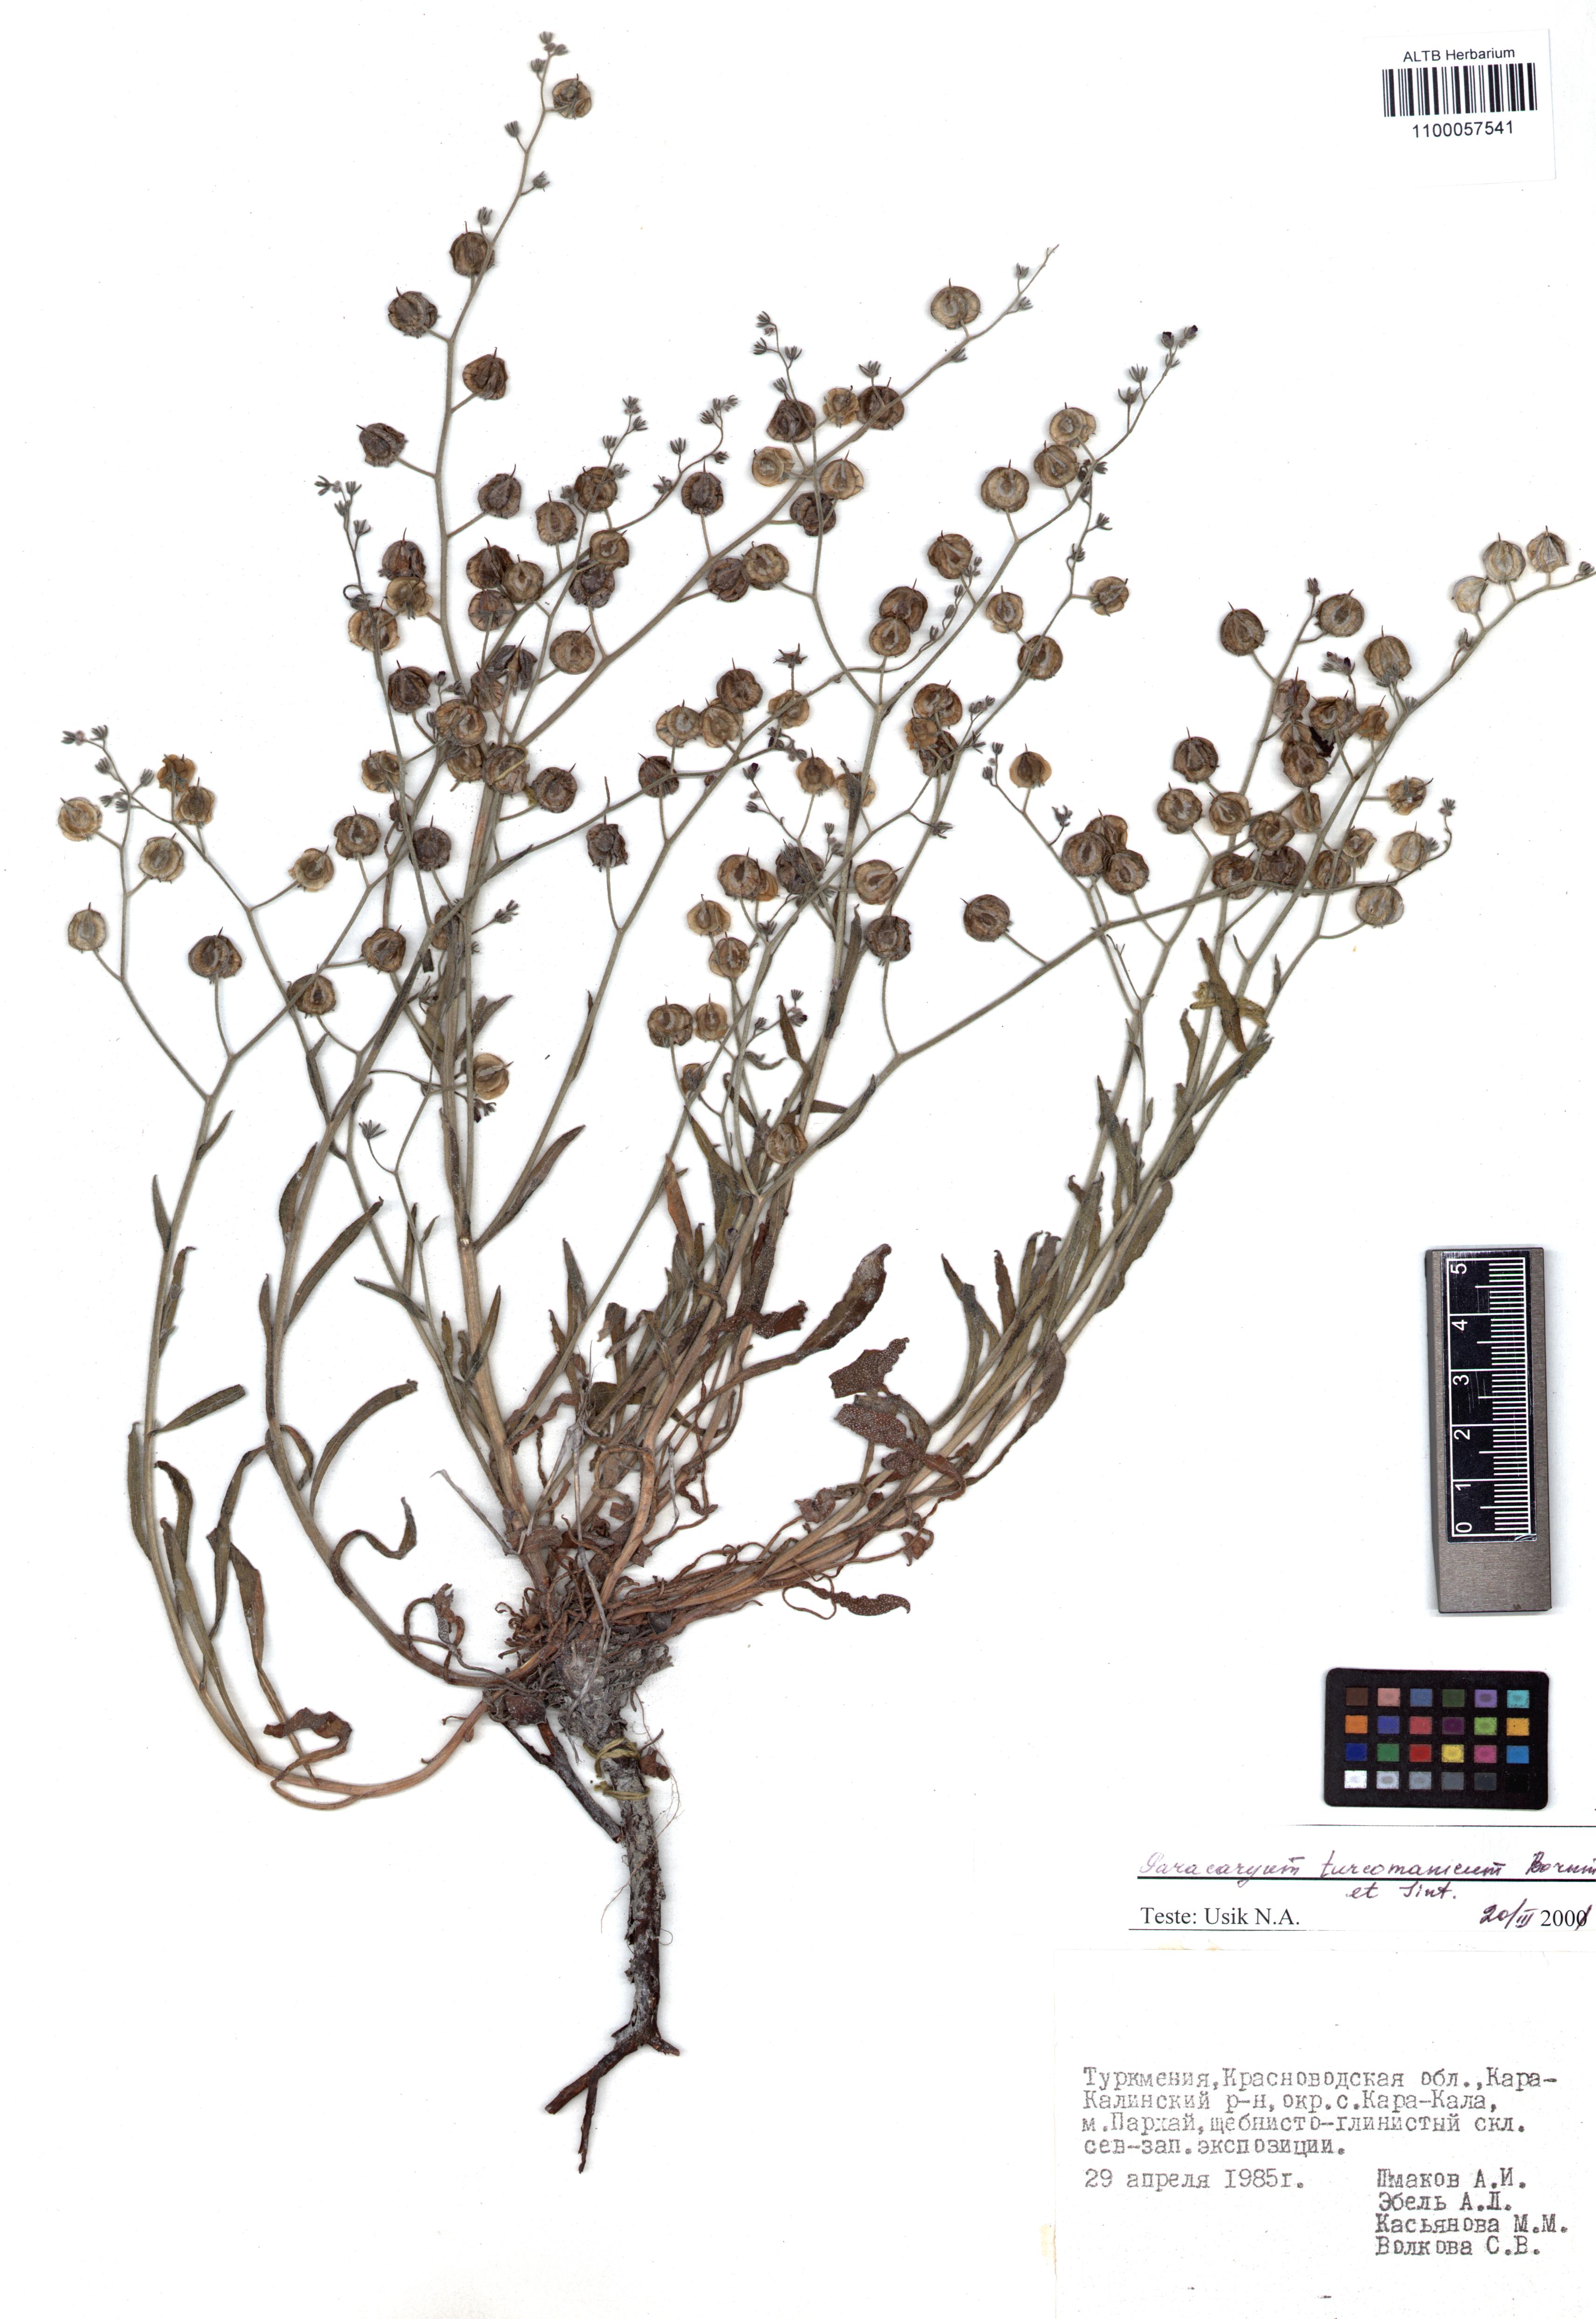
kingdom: Plantae
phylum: Tracheophyta
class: Magnoliopsida
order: Boraginales
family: Boraginaceae
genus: Paracaryum
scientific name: Paracaryum turcomanicum
